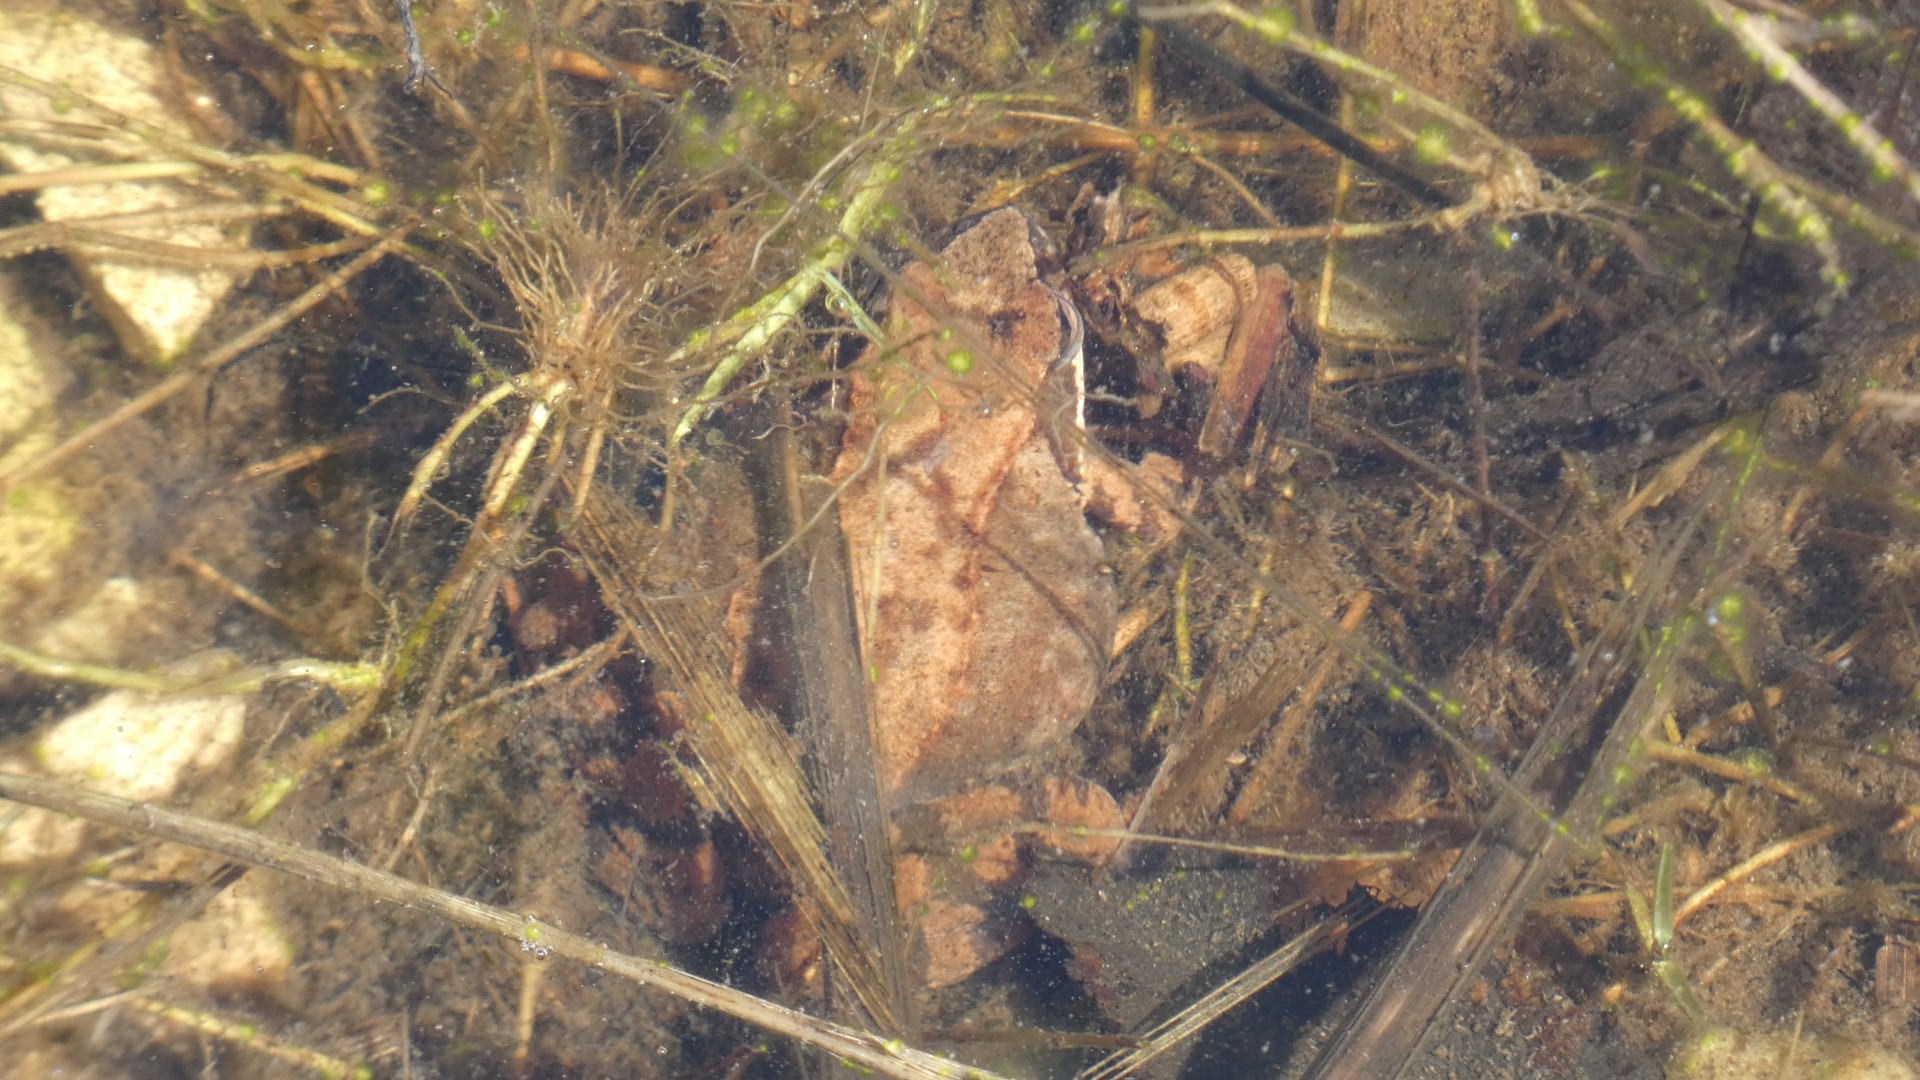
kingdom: Animalia
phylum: Chordata
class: Amphibia
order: Anura
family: Ranidae
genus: Rana
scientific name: Rana temporaria
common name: Butsnudet frø
